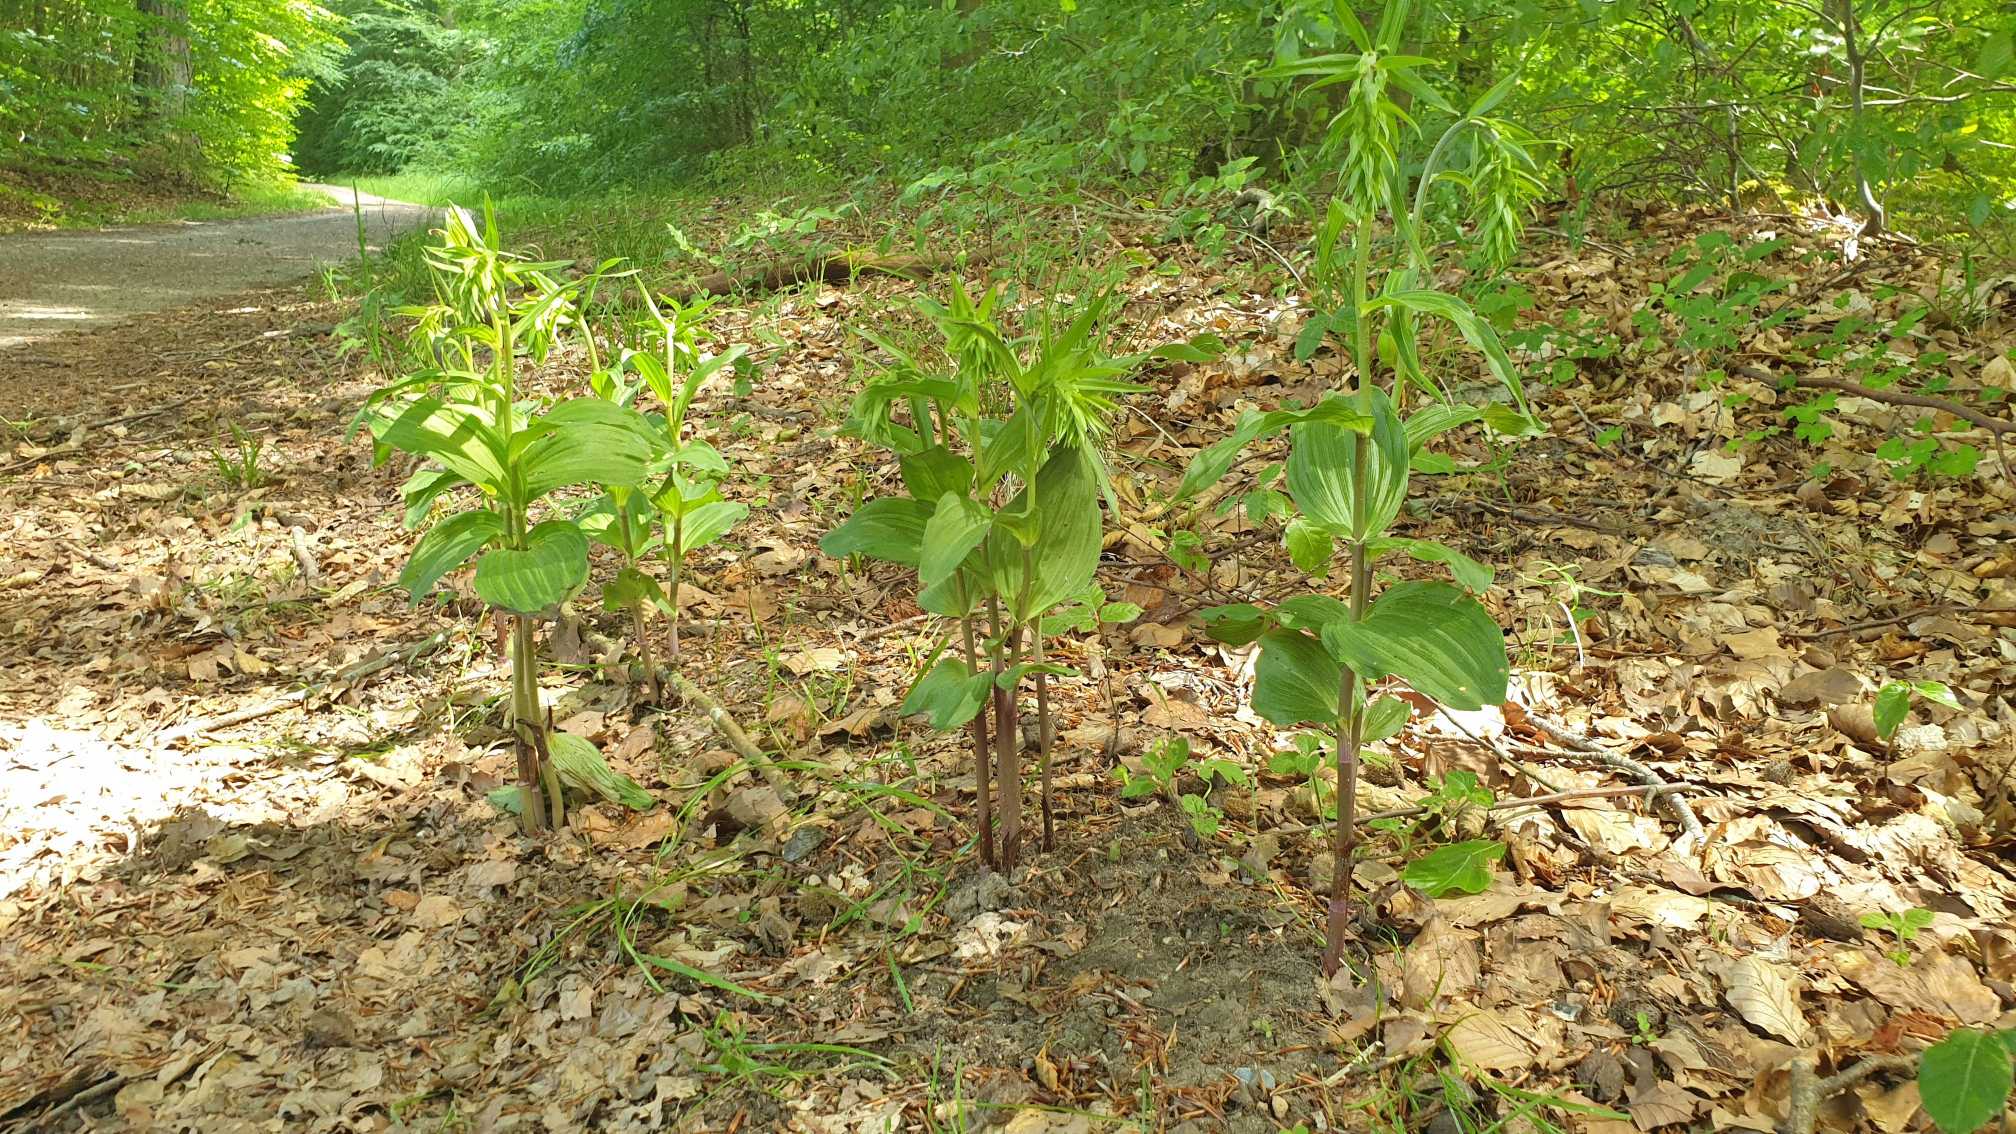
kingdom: Plantae
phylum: Tracheophyta
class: Liliopsida
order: Asparagales
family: Orchidaceae
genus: Epipactis
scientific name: Epipactis helleborine
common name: Skov-hullæbe
